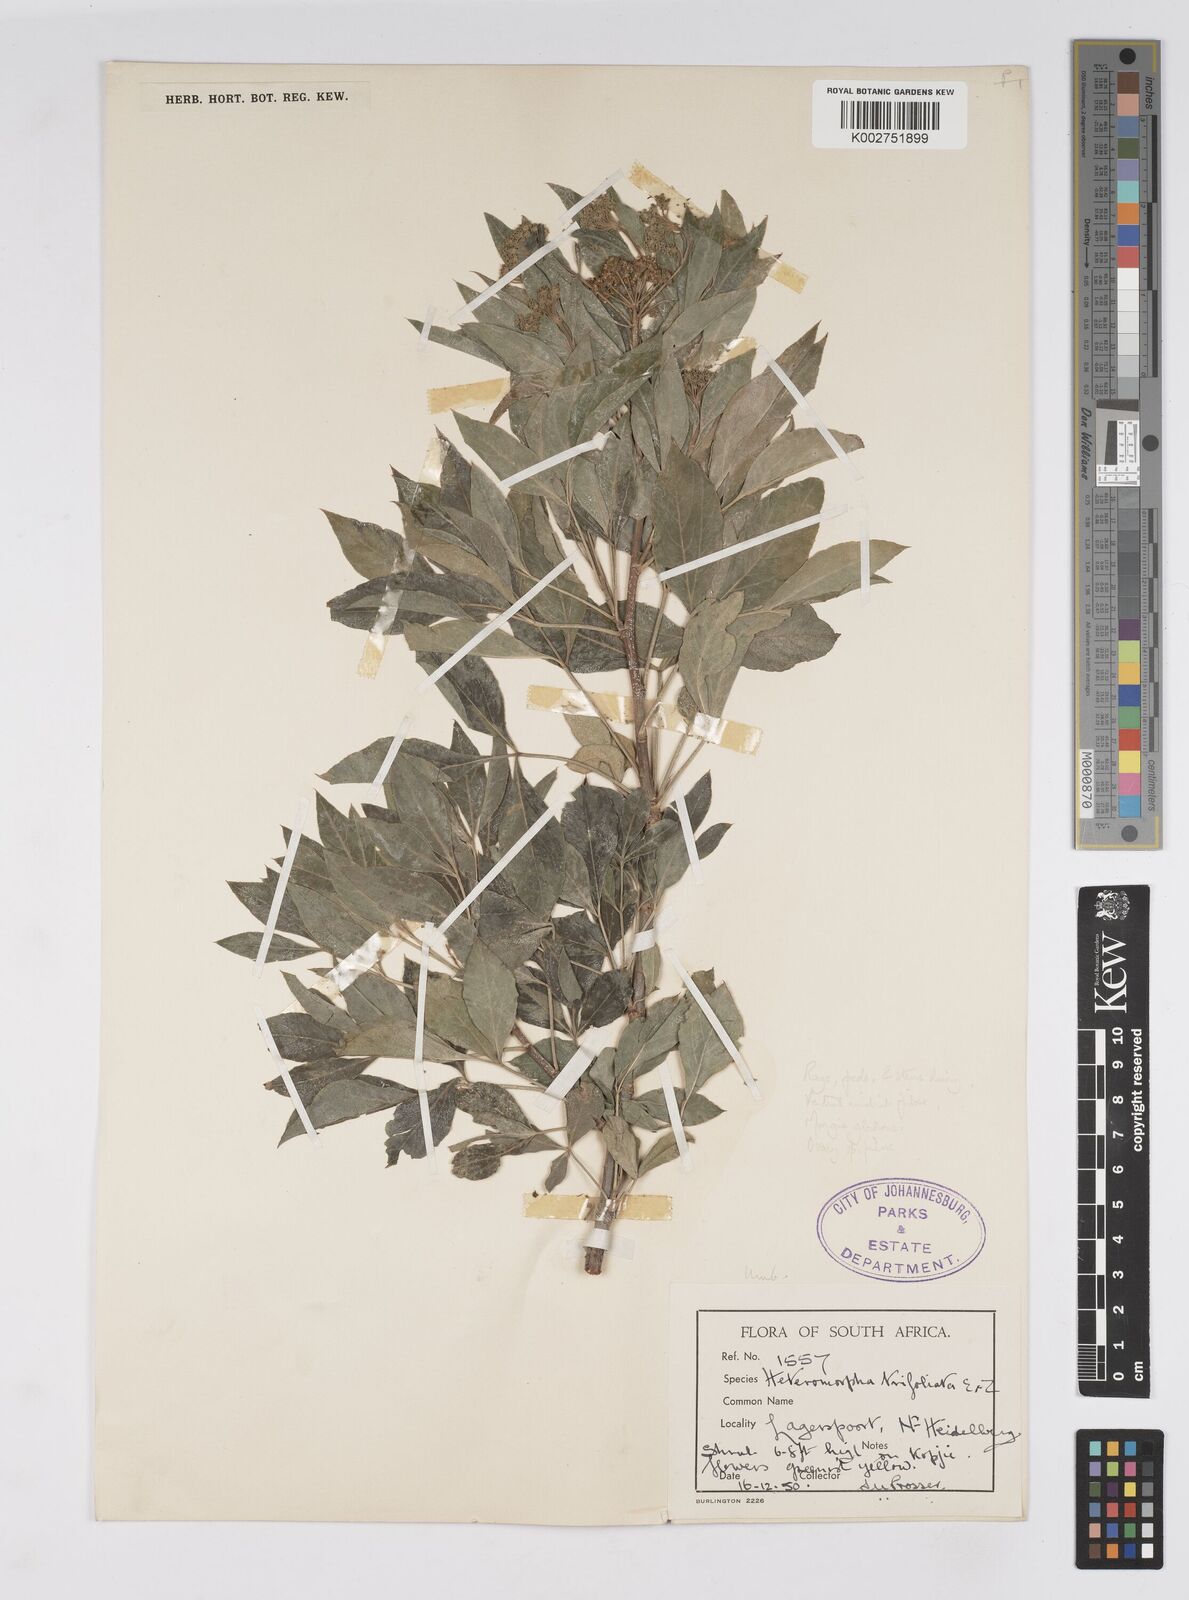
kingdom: Plantae
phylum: Tracheophyta
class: Magnoliopsida
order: Apiales
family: Apiaceae
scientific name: Apiaceae
